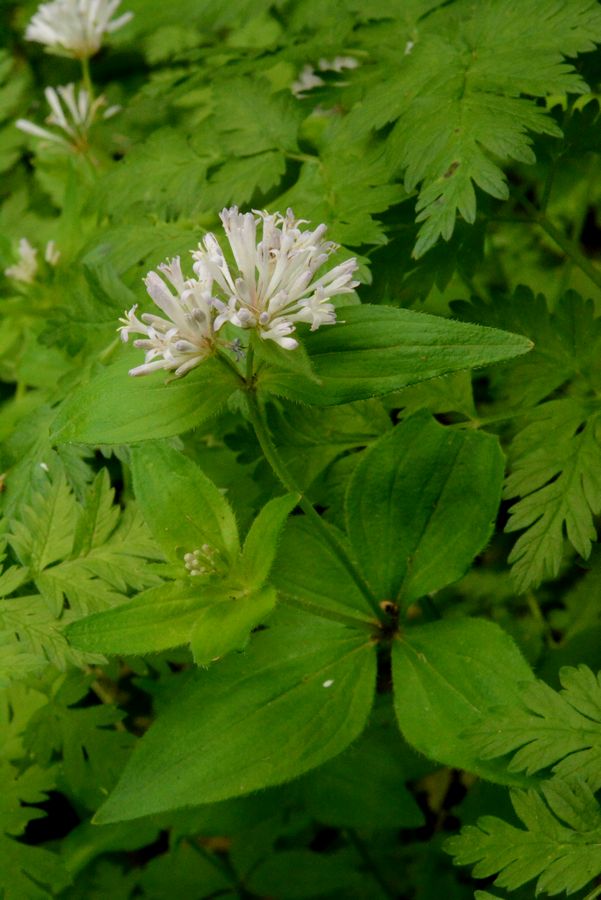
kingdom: Plantae
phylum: Tracheophyta
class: Magnoliopsida
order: Gentianales
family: Rubiaceae
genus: Asperula
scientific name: Asperula taurina
